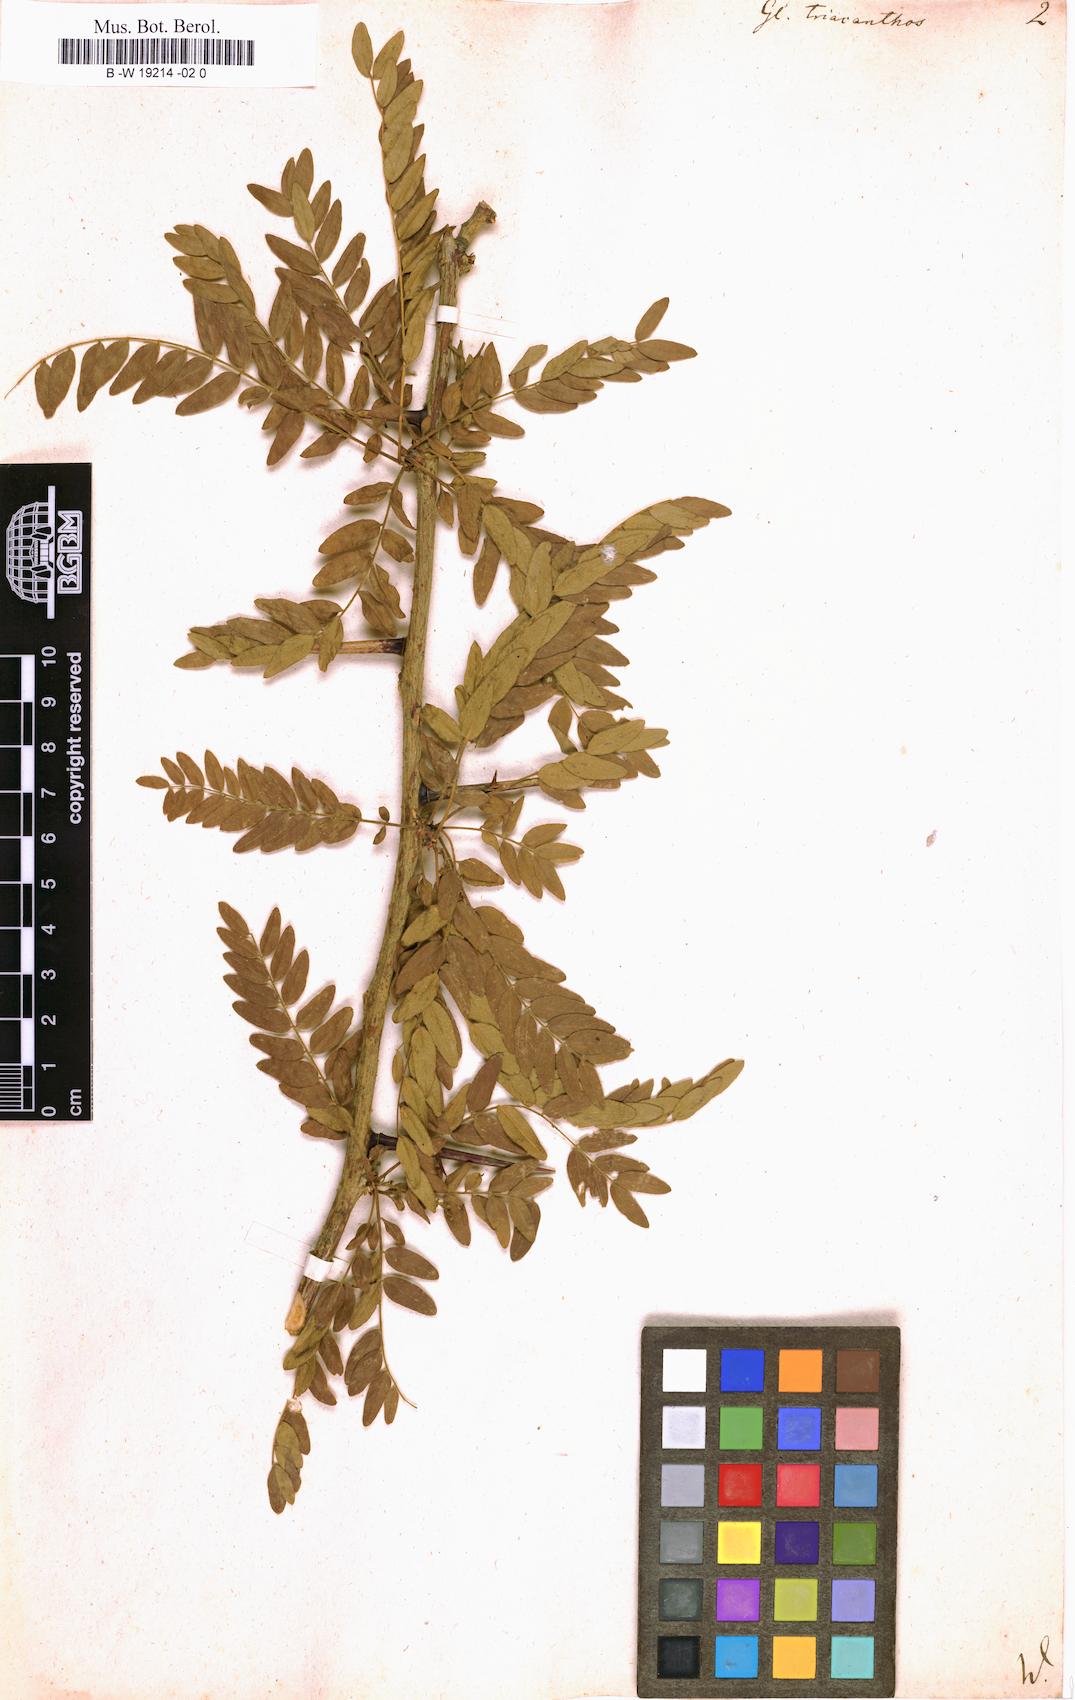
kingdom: Plantae
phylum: Tracheophyta
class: Magnoliopsida
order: Fabales
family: Fabaceae
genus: Gleditsia
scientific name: Gleditsia triacanthos
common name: Common honeylocust
